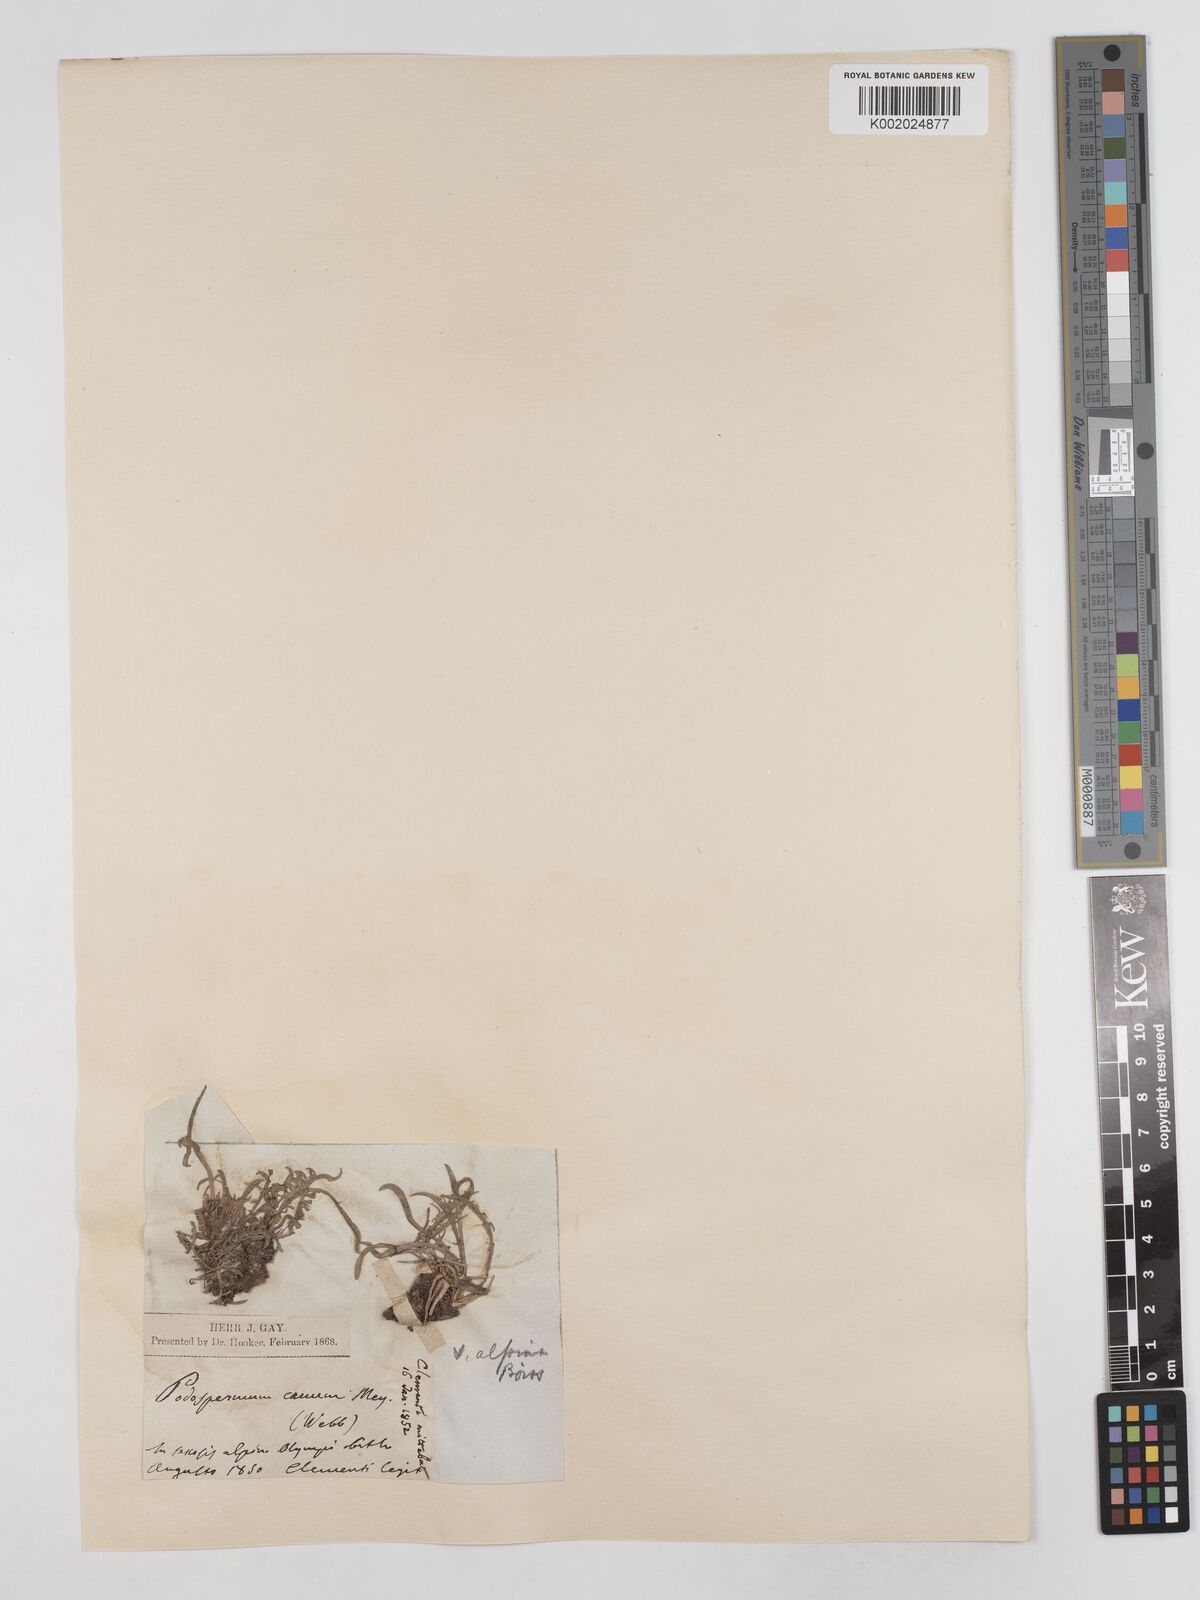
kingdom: Plantae
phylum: Tracheophyta
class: Magnoliopsida
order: Asterales
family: Asteraceae
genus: Scorzonera
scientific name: Scorzonera cana
